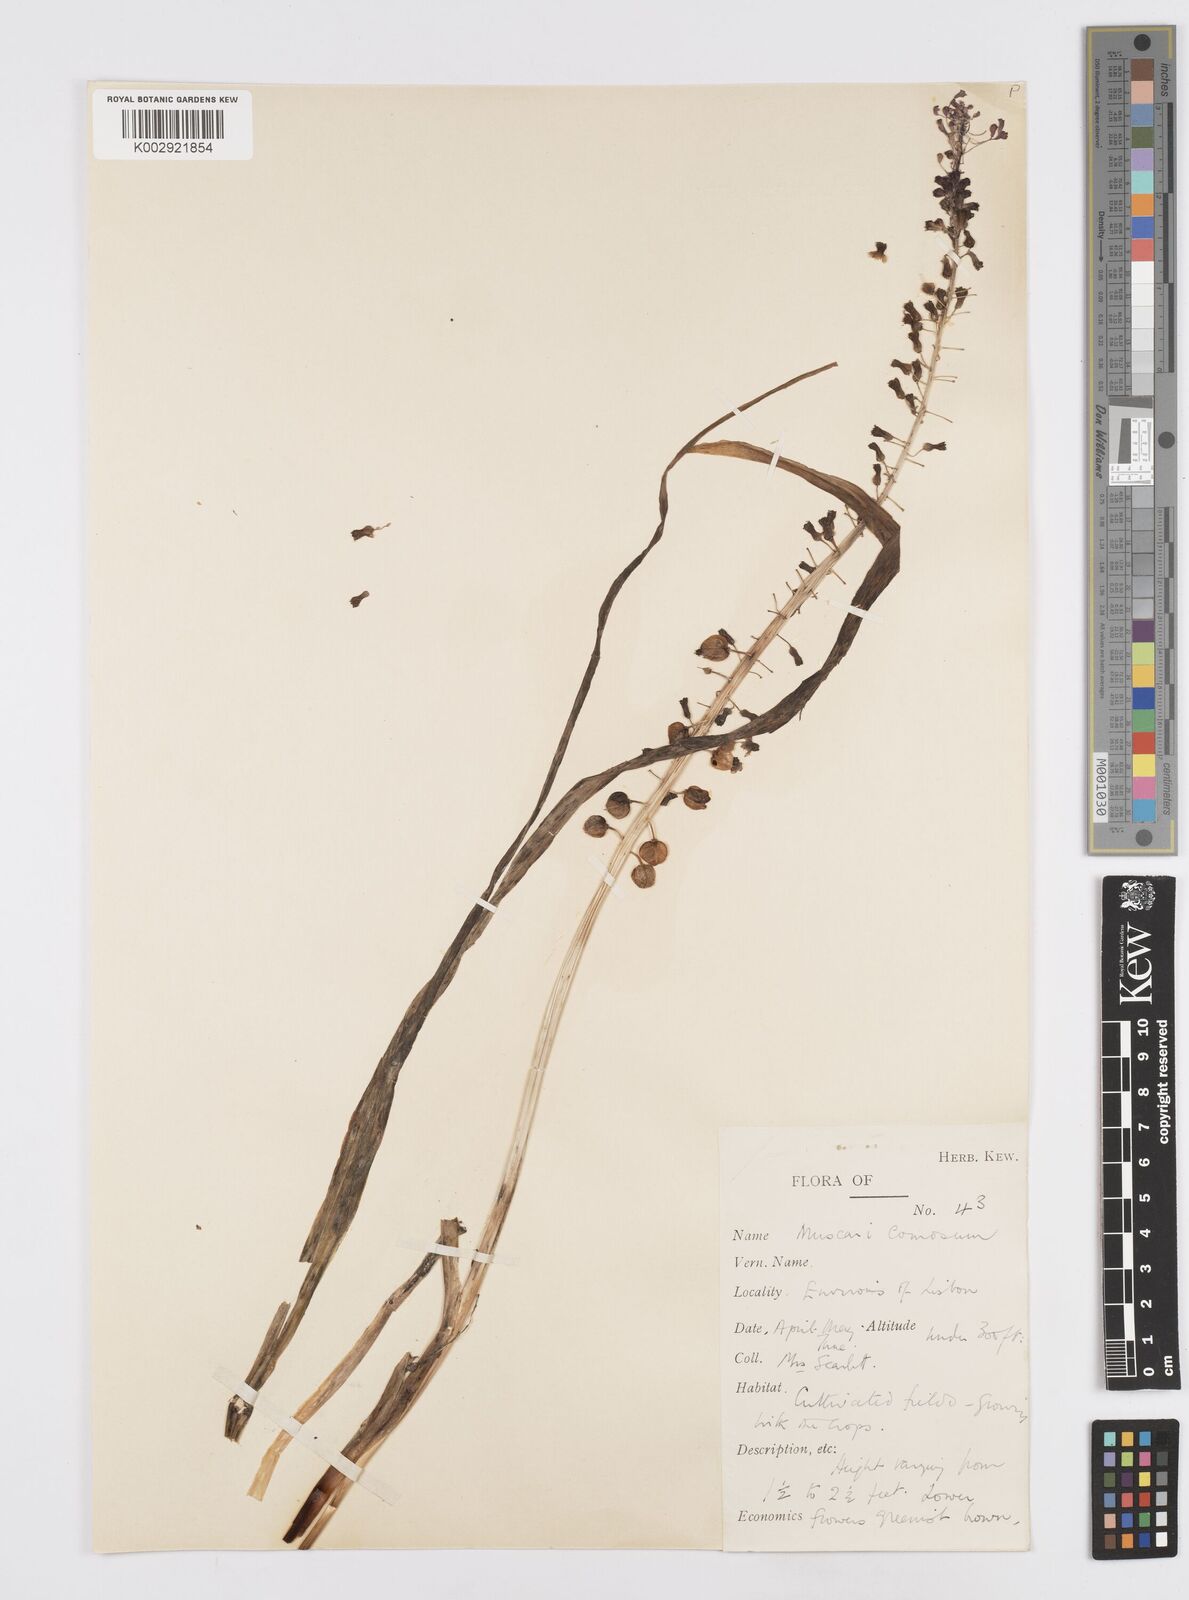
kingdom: Plantae
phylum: Tracheophyta
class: Liliopsida
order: Asparagales
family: Asparagaceae
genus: Muscari
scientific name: Muscari comosum
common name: Tassel hyacinth
